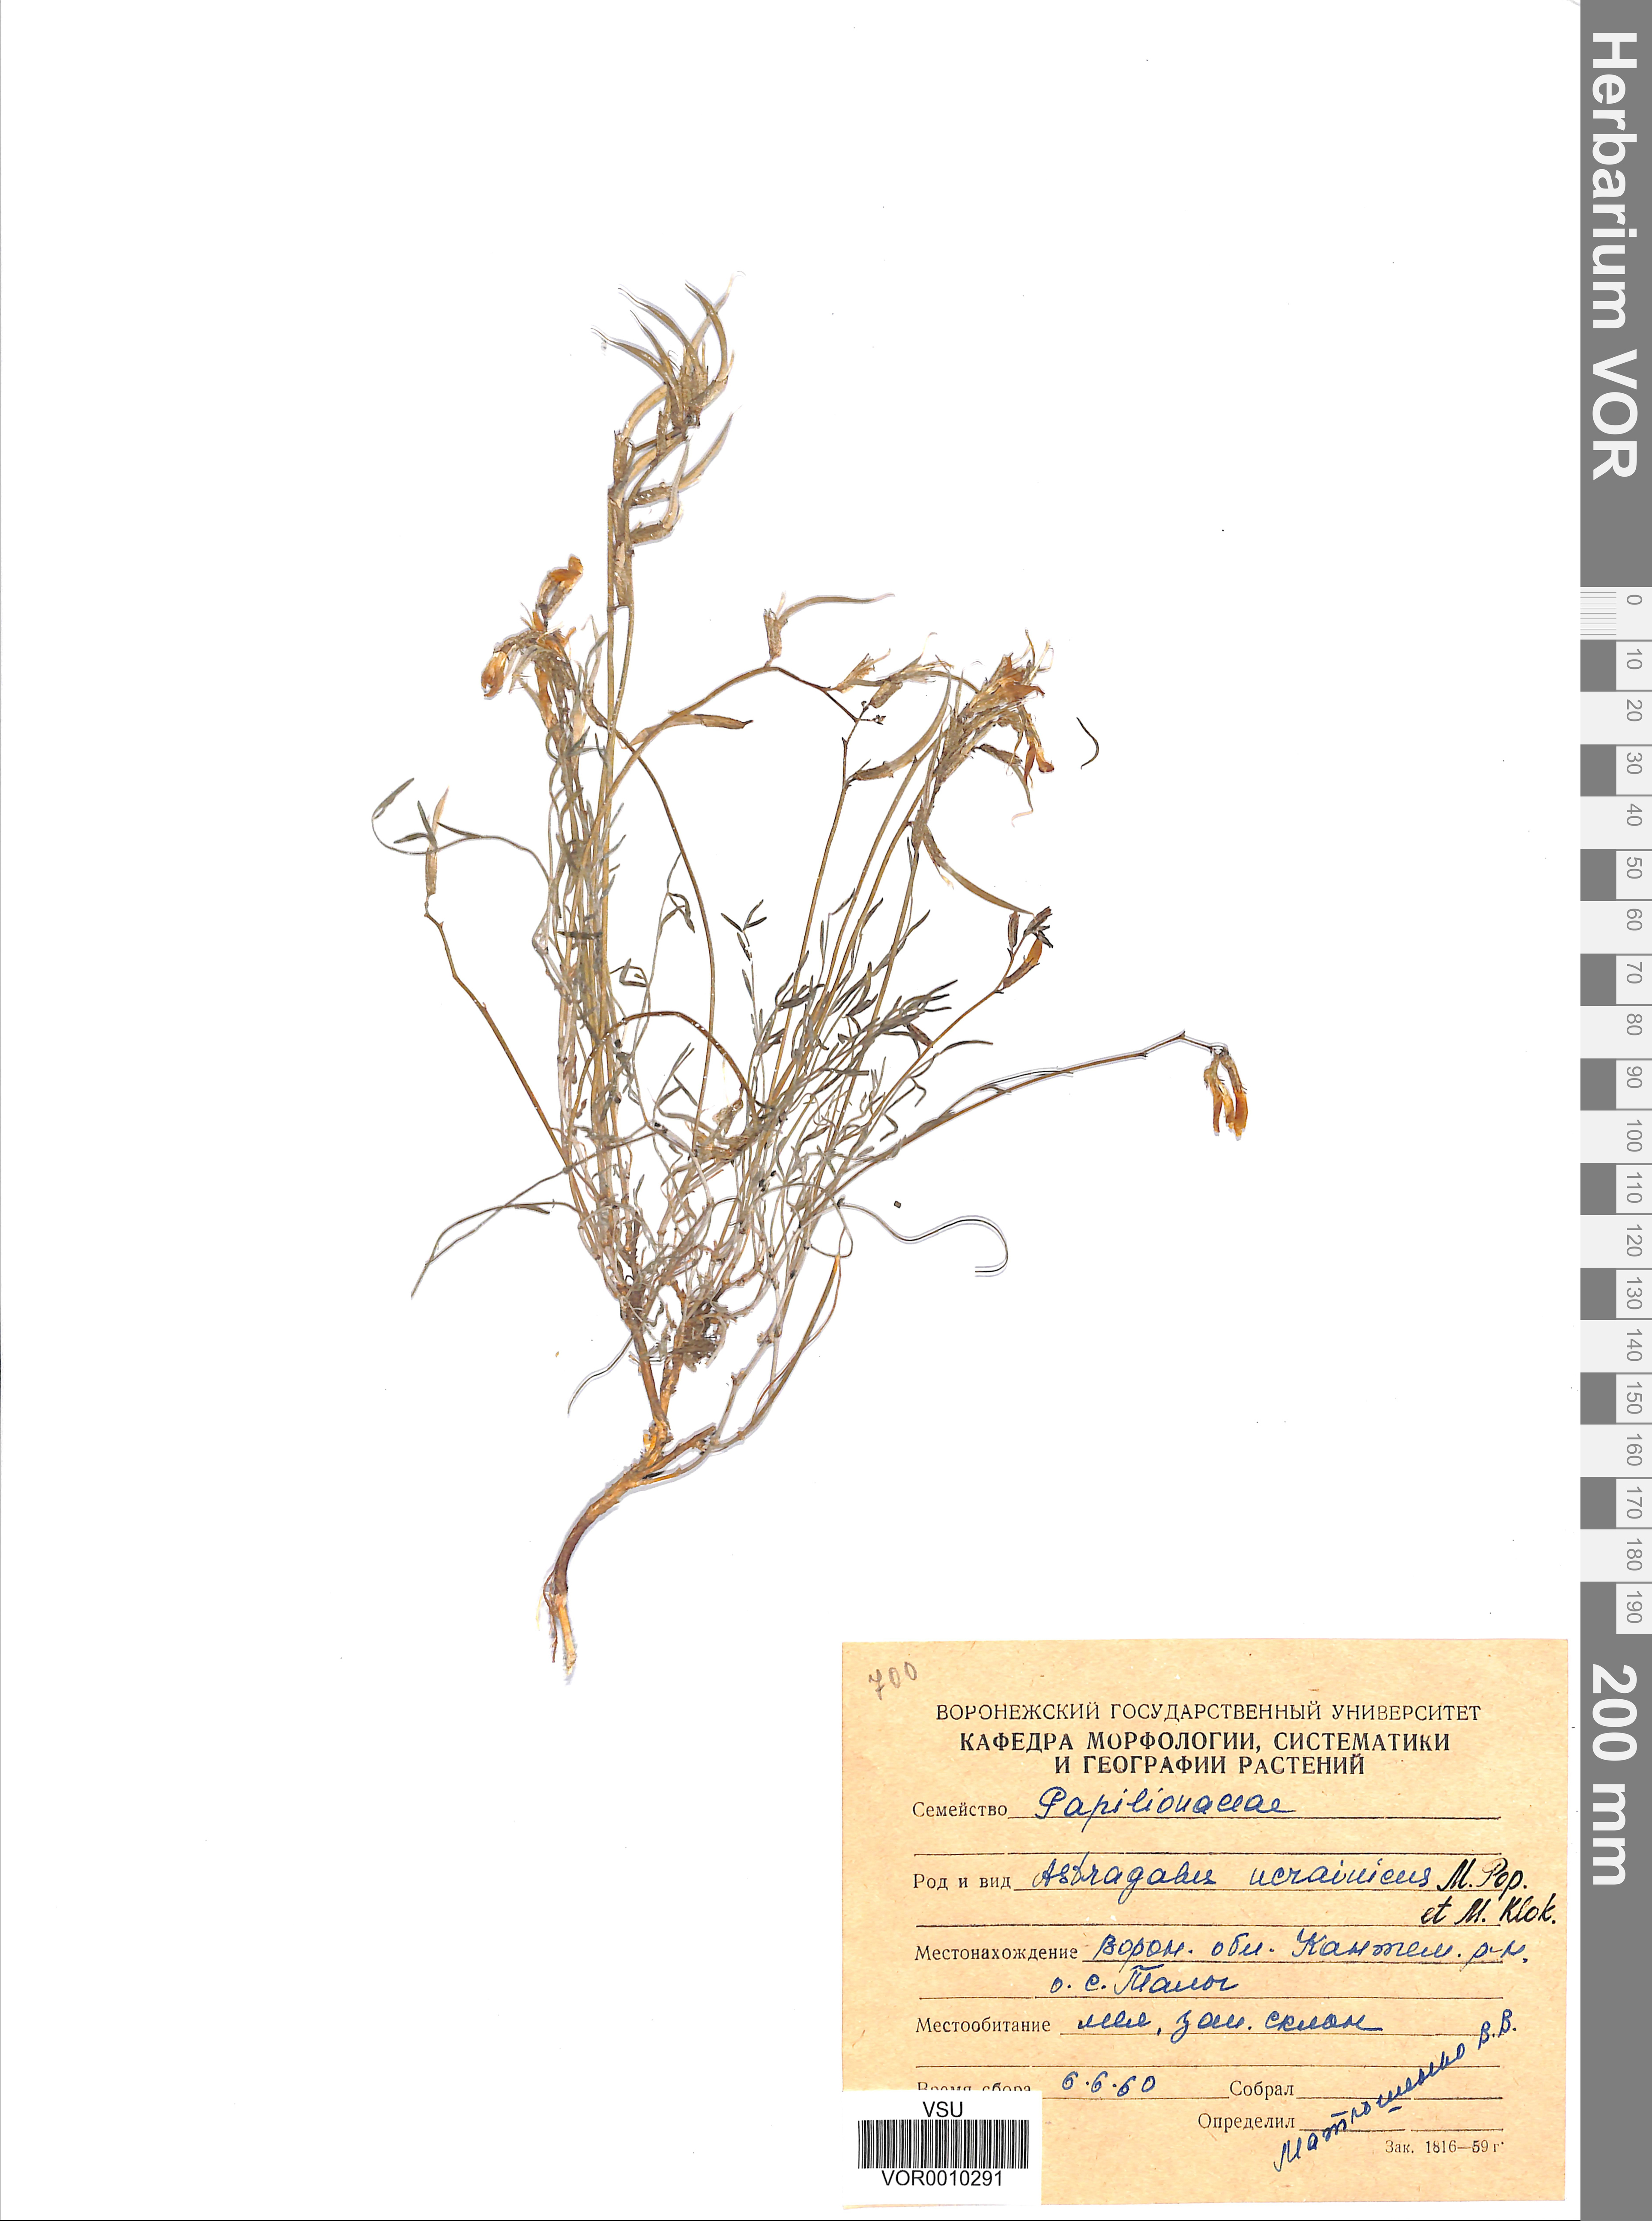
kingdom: Plantae
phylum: Tracheophyta
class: Magnoliopsida
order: Fabales
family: Fabaceae
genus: Astragalus
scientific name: Astragalus ucrainicus
